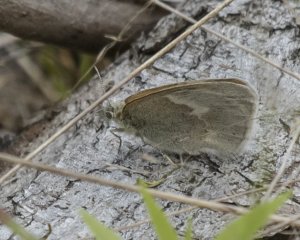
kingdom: Animalia
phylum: Arthropoda
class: Insecta
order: Lepidoptera
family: Nymphalidae
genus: Coenonympha
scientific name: Coenonympha tullia
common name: Large Heath
